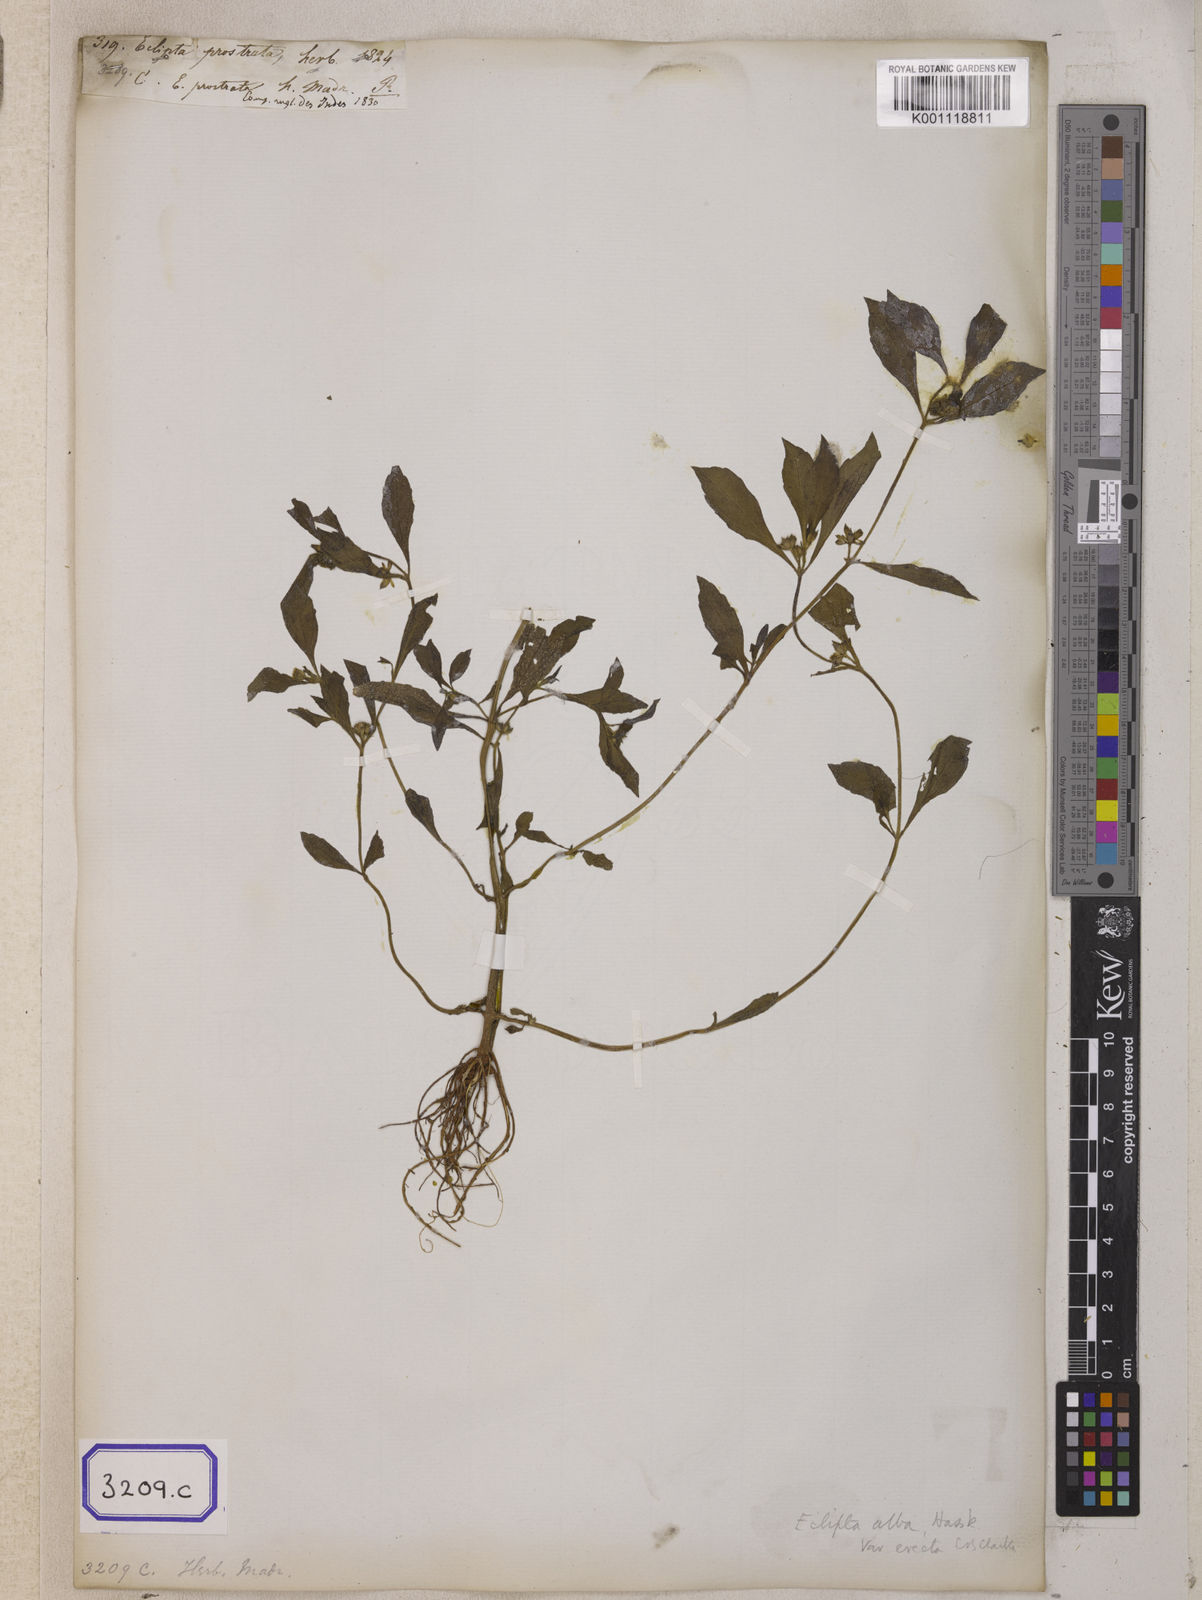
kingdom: Plantae
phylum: Tracheophyta
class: Magnoliopsida
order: Asterales
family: Asteraceae
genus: Eclipta
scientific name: Eclipta prostrata
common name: False daisy
